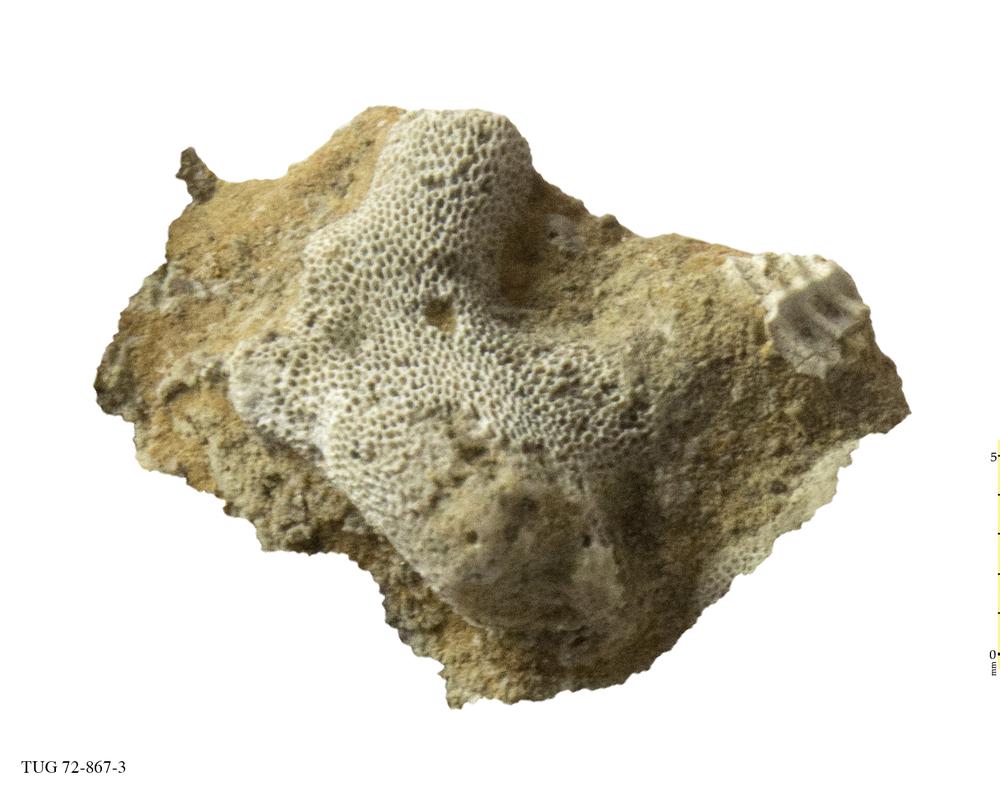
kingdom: Animalia
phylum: Bryozoa
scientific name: Bryozoa
